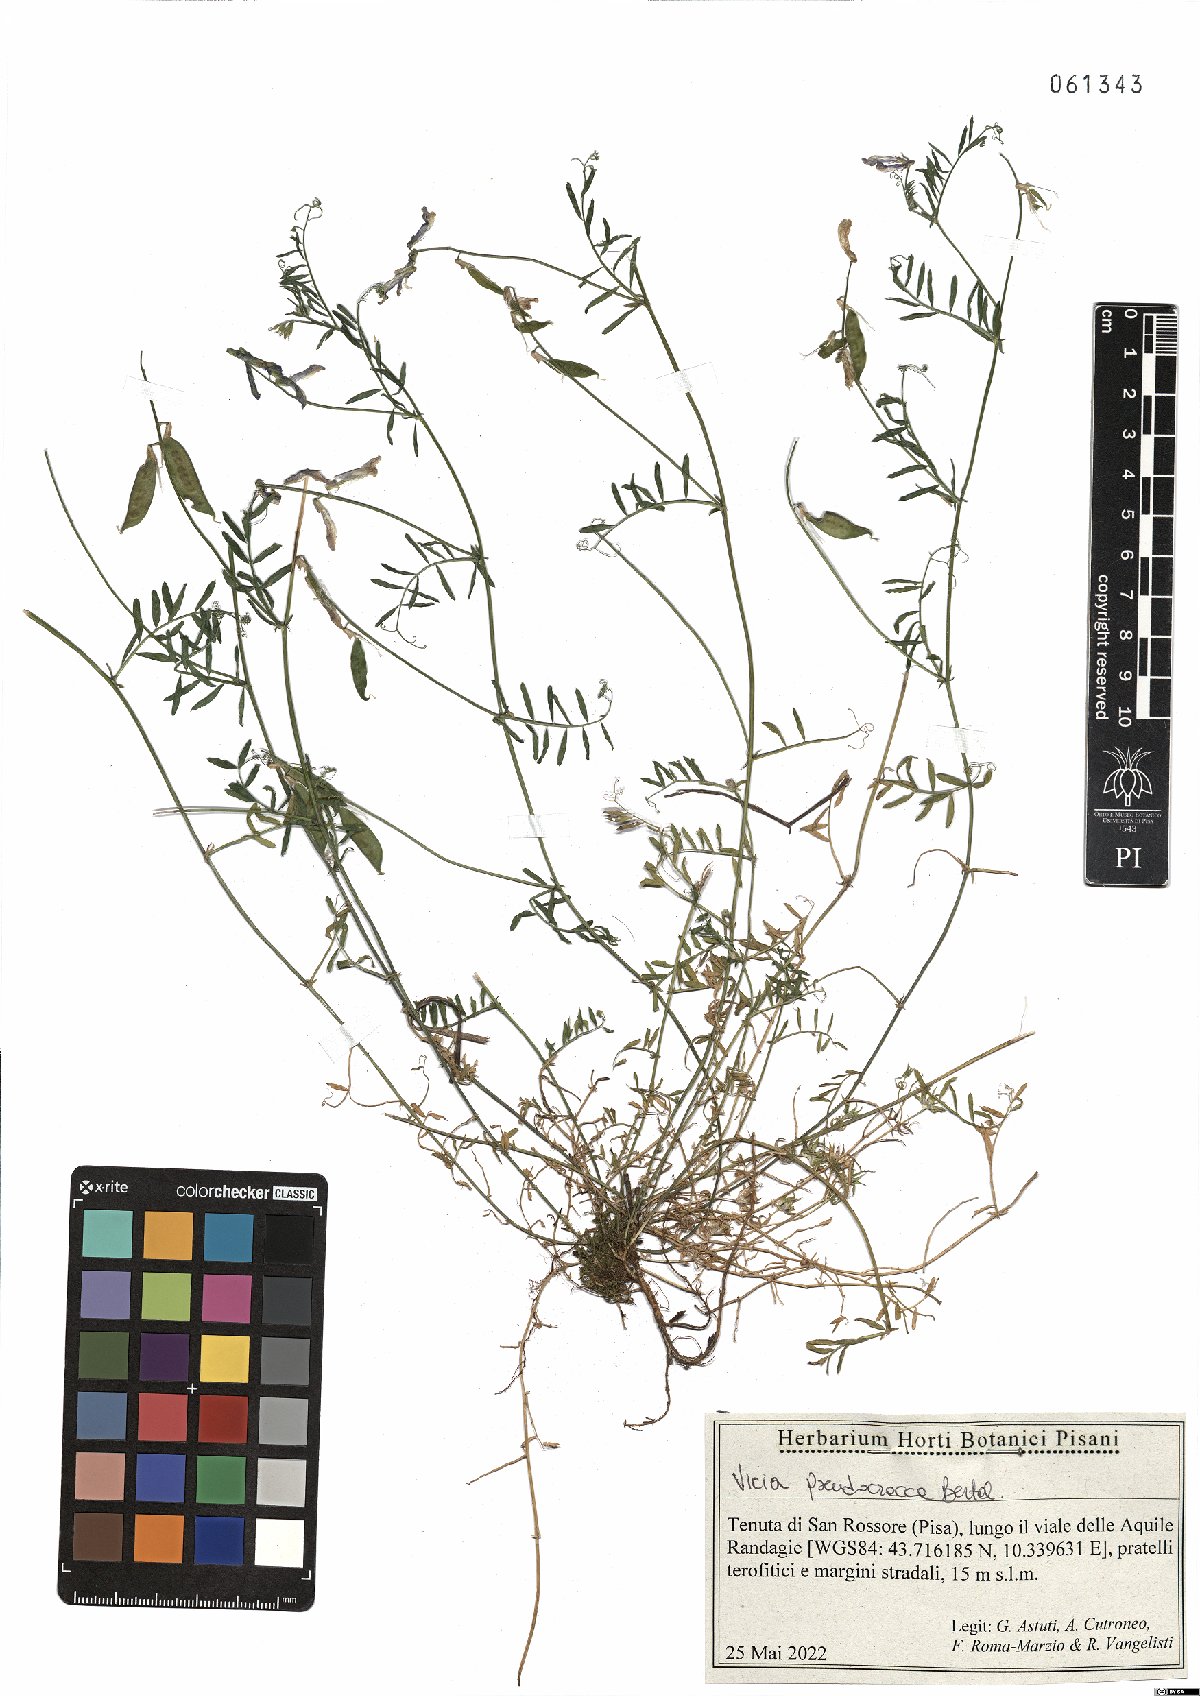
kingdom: Plantae
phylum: Tracheophyta
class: Magnoliopsida
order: Fabales
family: Fabaceae
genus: Vicia
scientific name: Vicia villosa
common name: Fodder vetch
